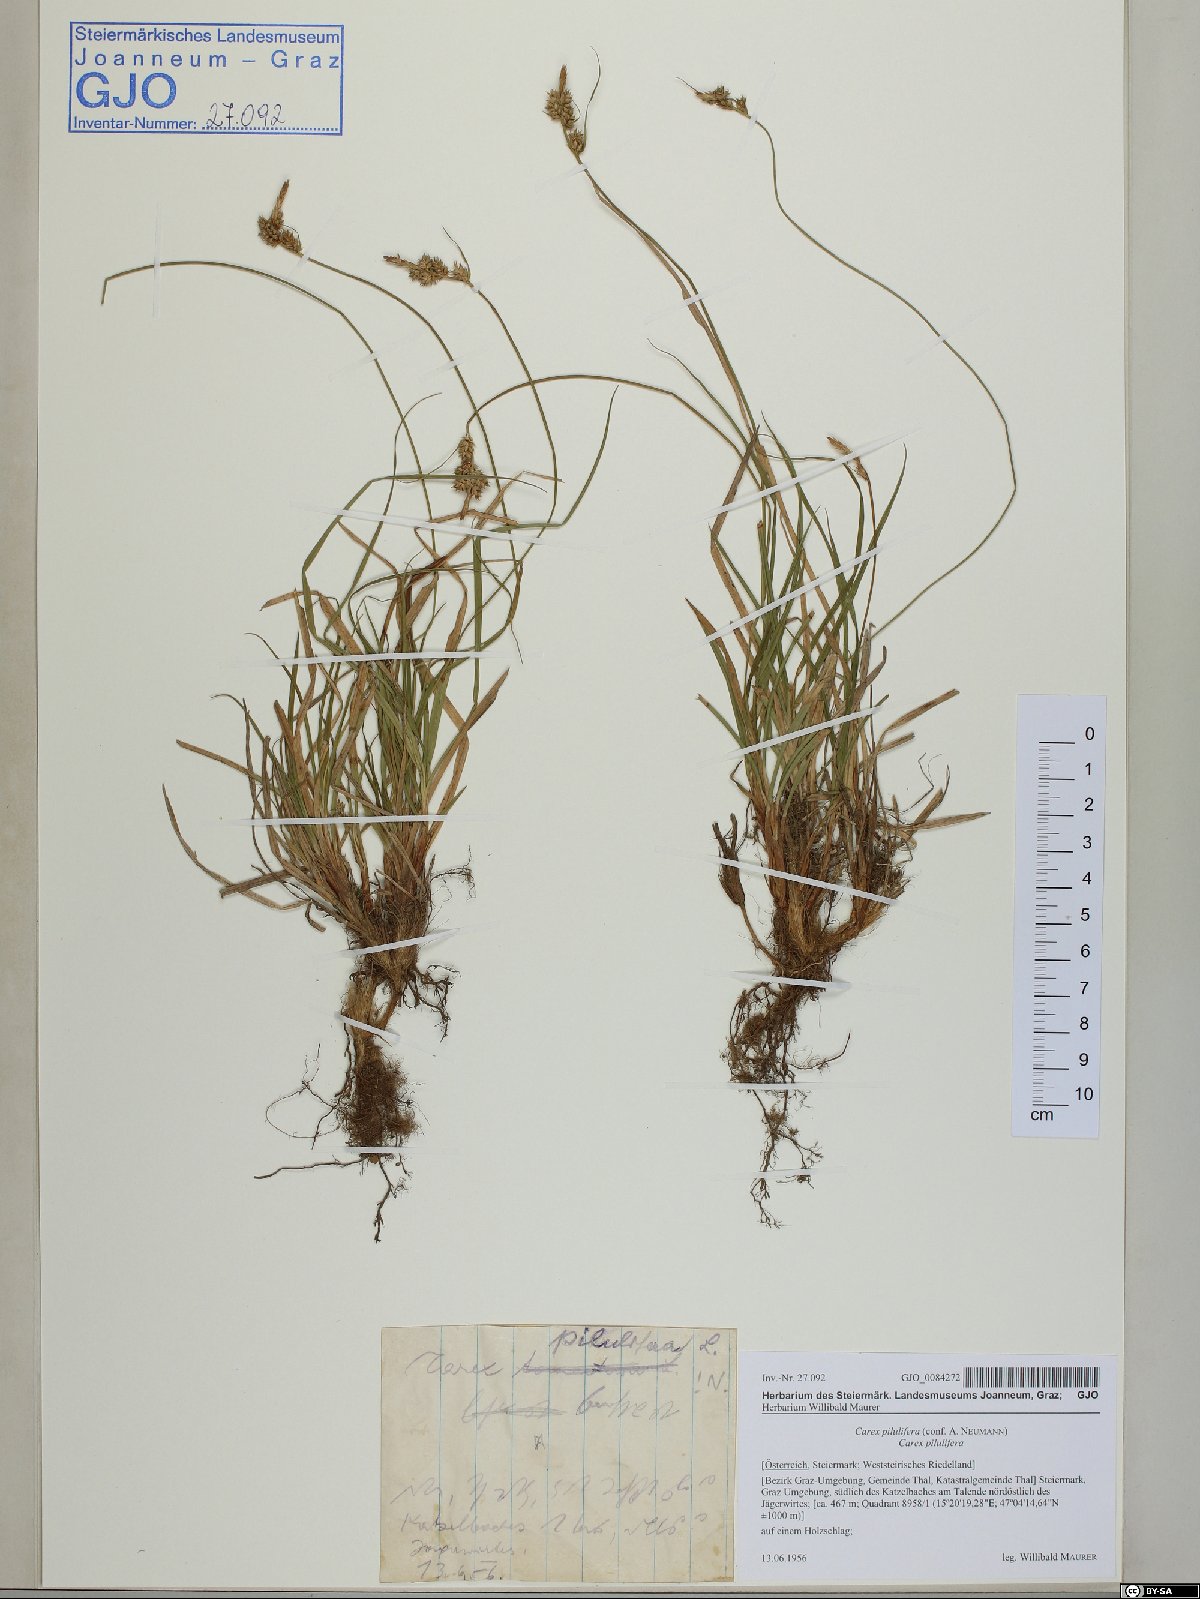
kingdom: Plantae
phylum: Tracheophyta
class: Liliopsida
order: Poales
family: Cyperaceae
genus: Carex
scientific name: Carex pilulifera
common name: Pill sedge
